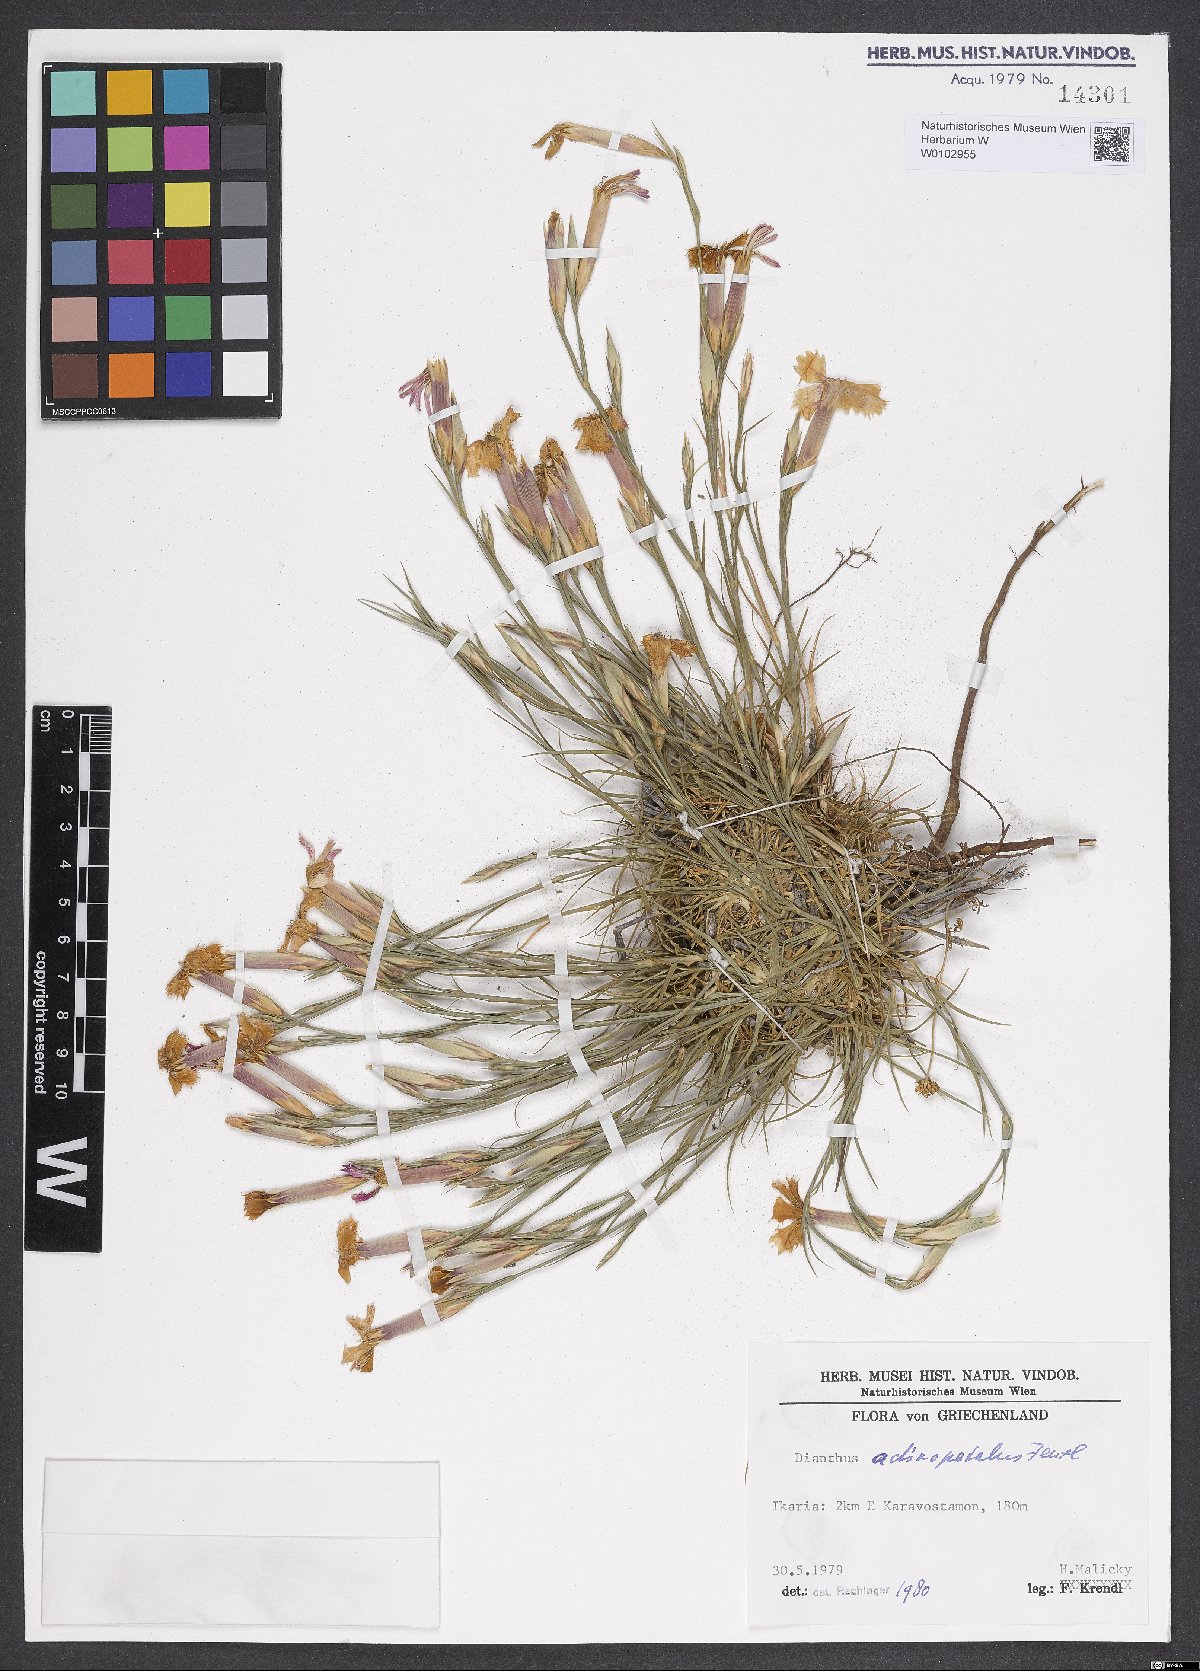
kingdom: Plantae
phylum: Tracheophyta
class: Magnoliopsida
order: Caryophyllales
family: Caryophyllaceae
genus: Dianthus
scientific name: Dianthus elegans
